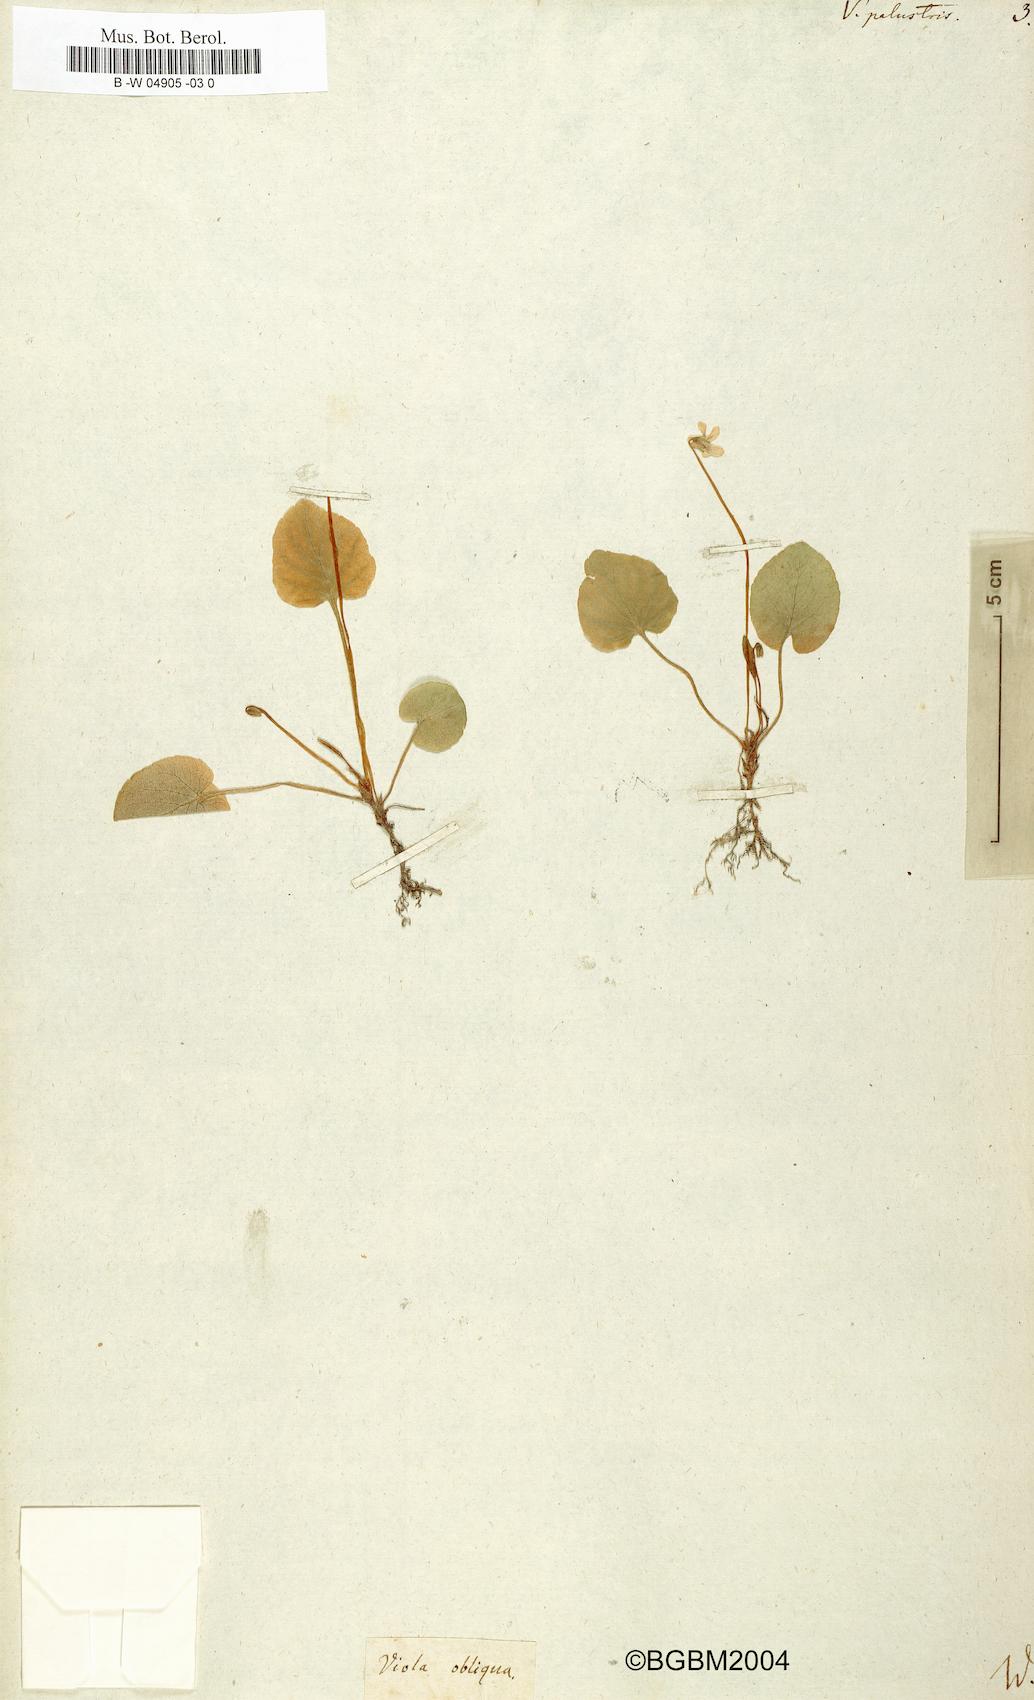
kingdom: Plantae
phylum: Tracheophyta
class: Magnoliopsida
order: Malpighiales
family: Violaceae
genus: Viola
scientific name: Viola palustris
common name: Marsh violet
